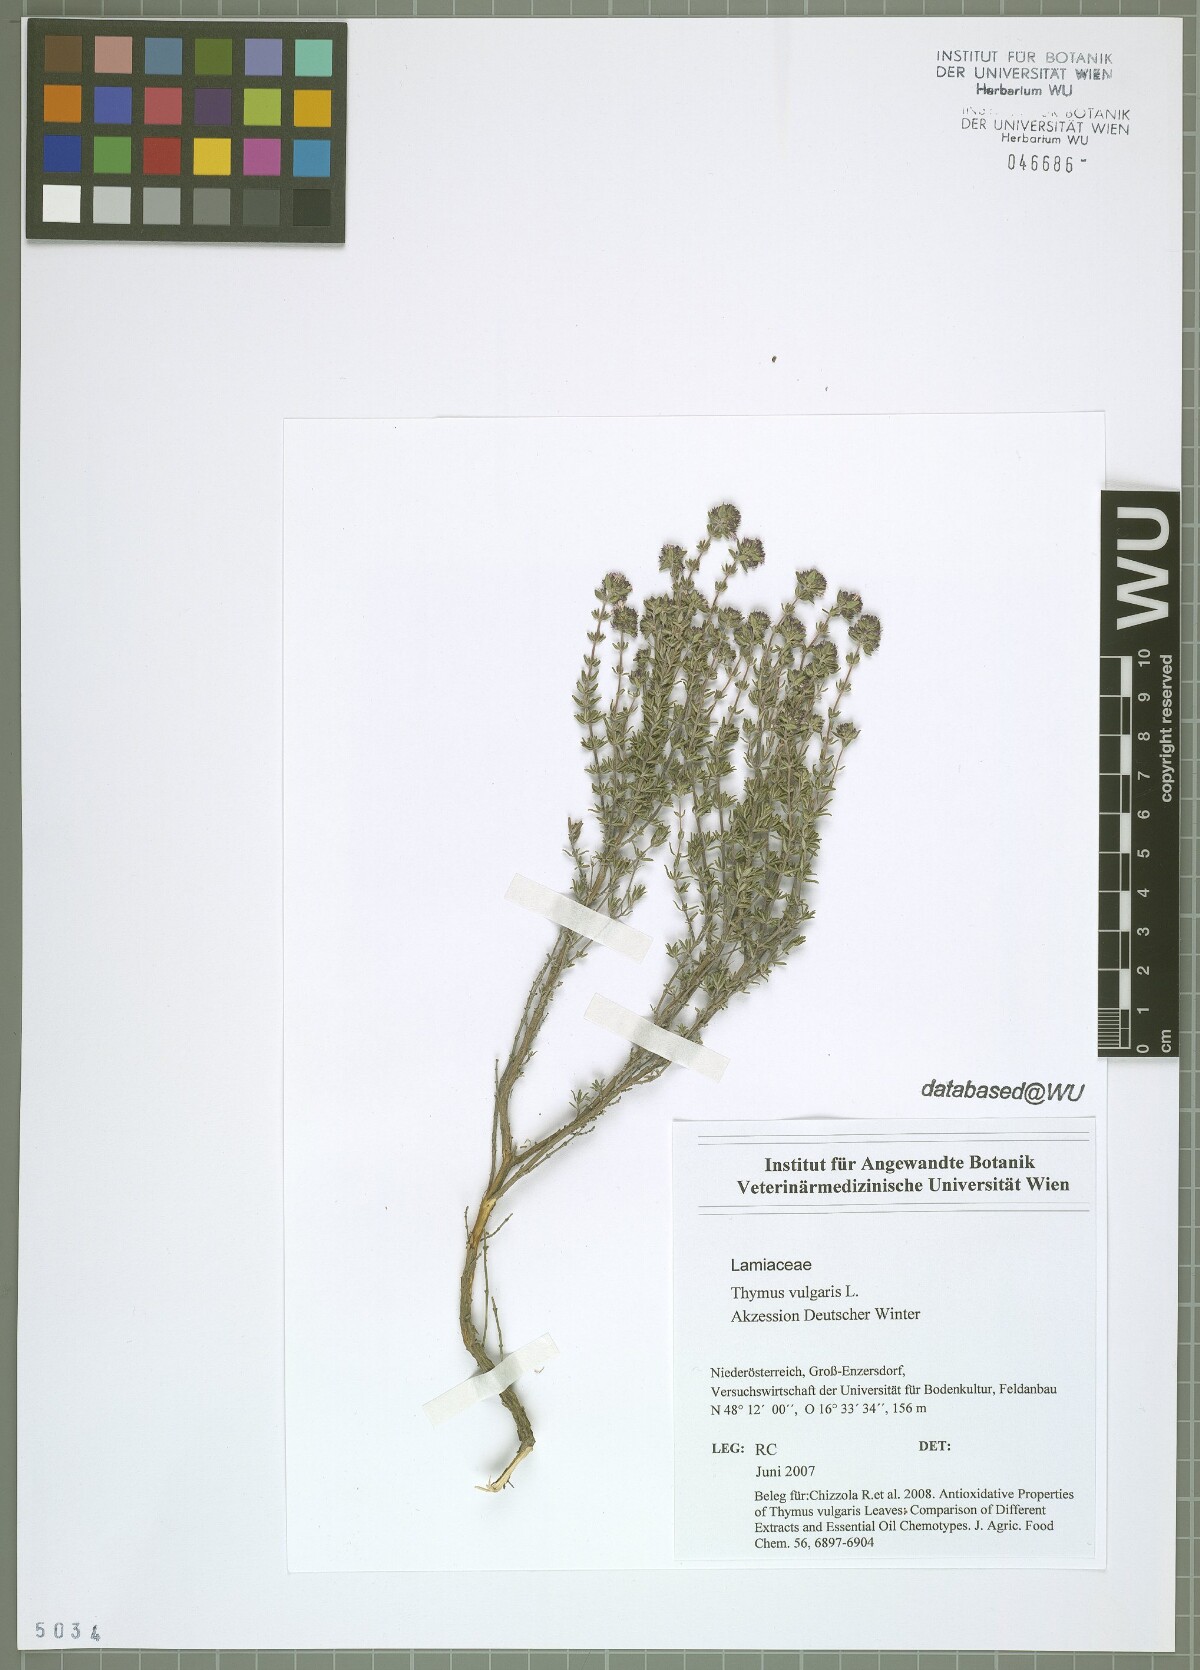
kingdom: Plantae
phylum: Tracheophyta
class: Magnoliopsida
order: Lamiales
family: Lamiaceae
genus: Thymus
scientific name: Thymus vulgaris
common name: Garden thyme
